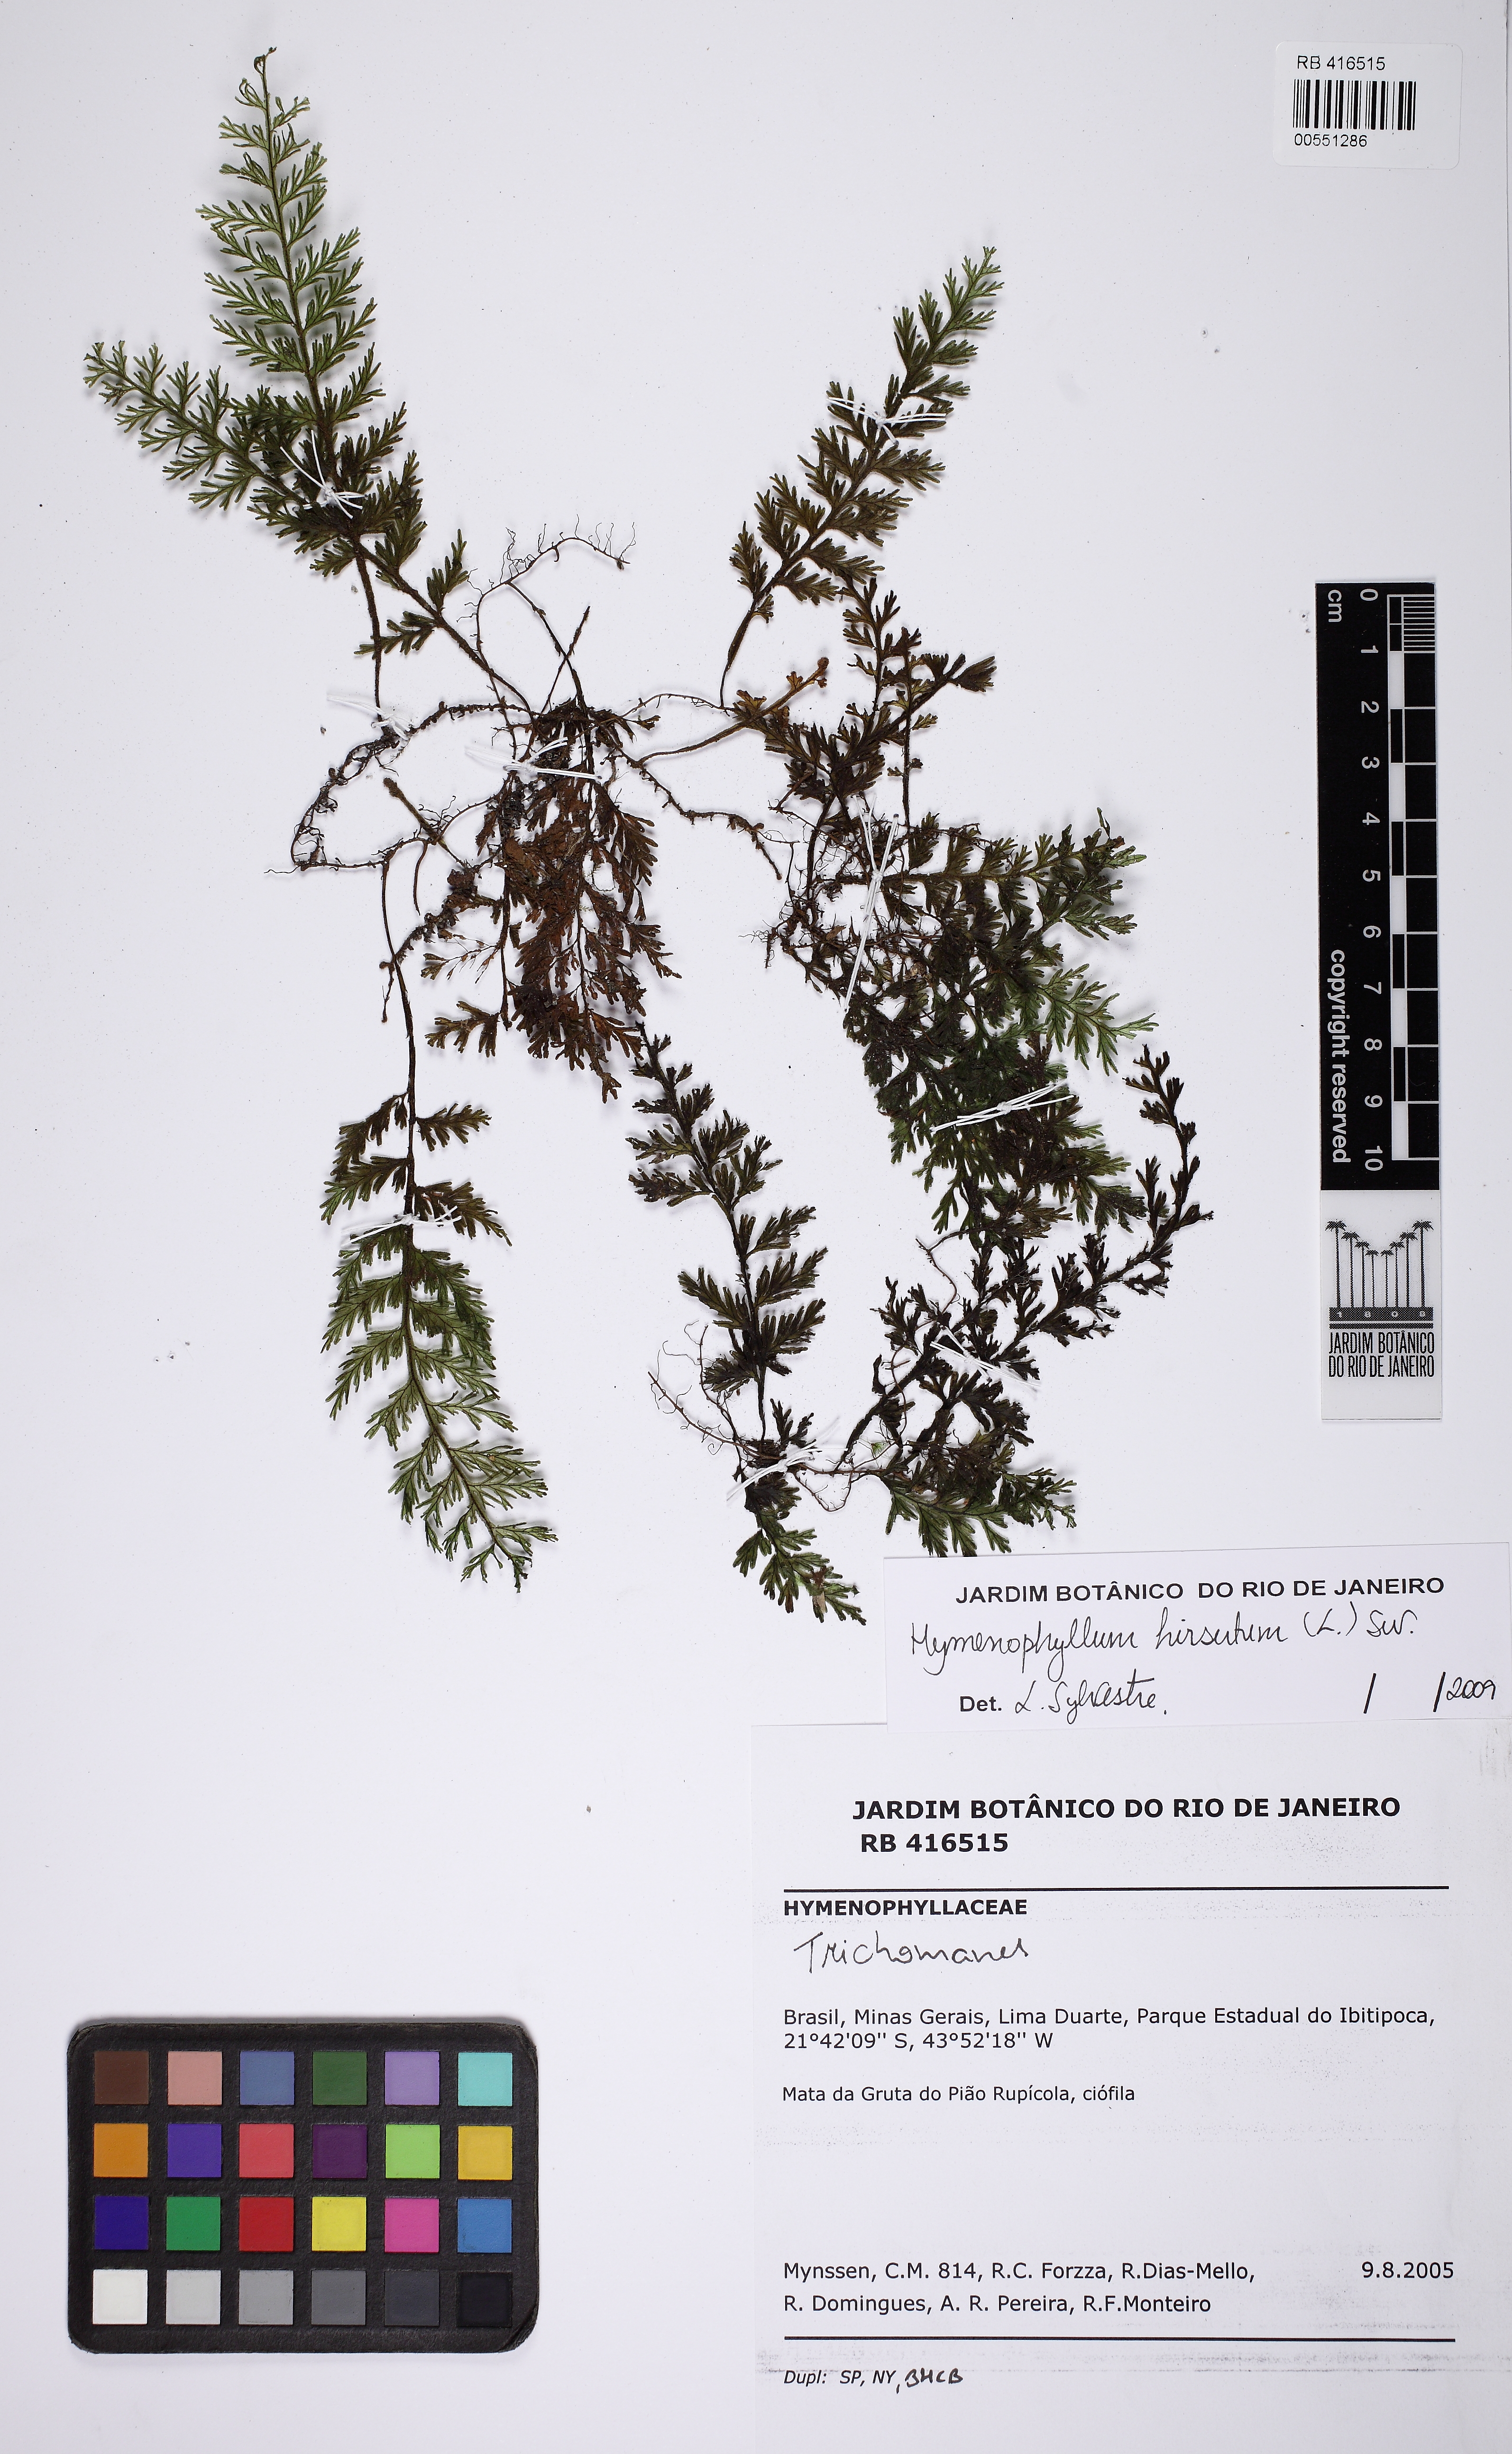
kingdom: Plantae
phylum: Tracheophyta
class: Polypodiopsida
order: Hymenophyllales
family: Hymenophyllaceae
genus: Hymenophyllum
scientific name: Hymenophyllum hirsutum
